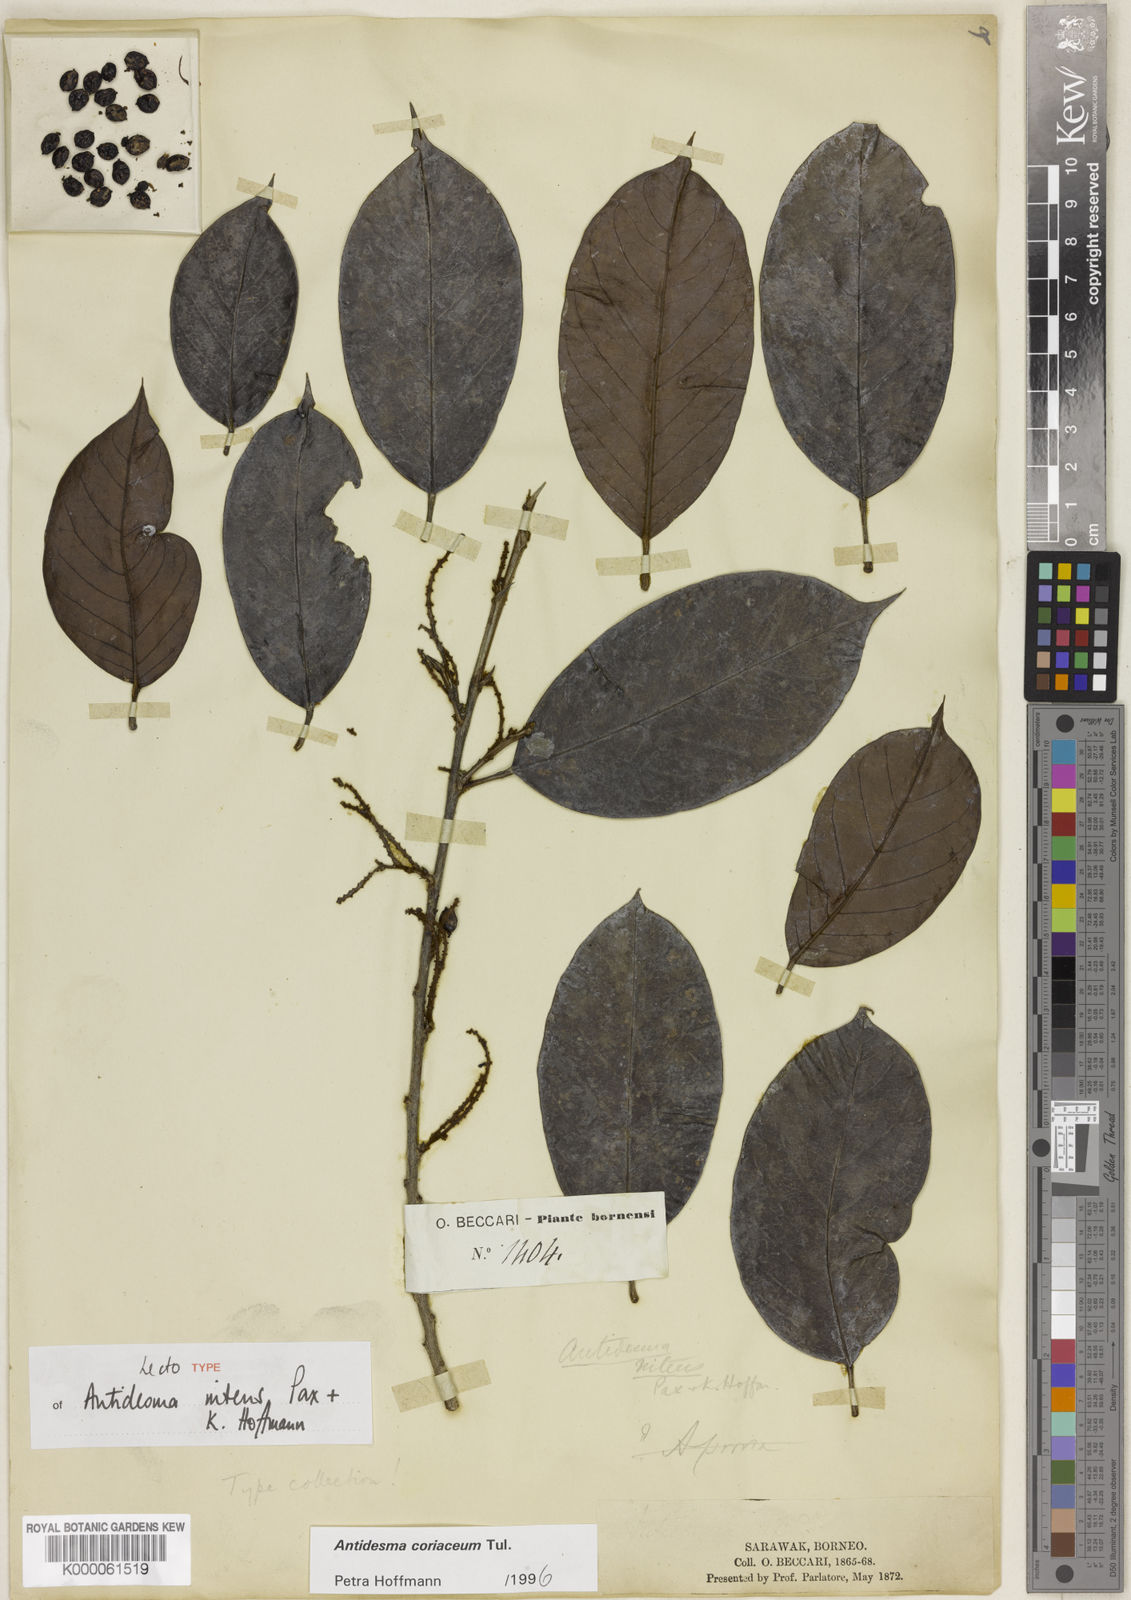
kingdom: Plantae
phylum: Tracheophyta
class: Magnoliopsida
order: Malpighiales
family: Phyllanthaceae
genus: Antidesma
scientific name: Antidesma coriaceum
